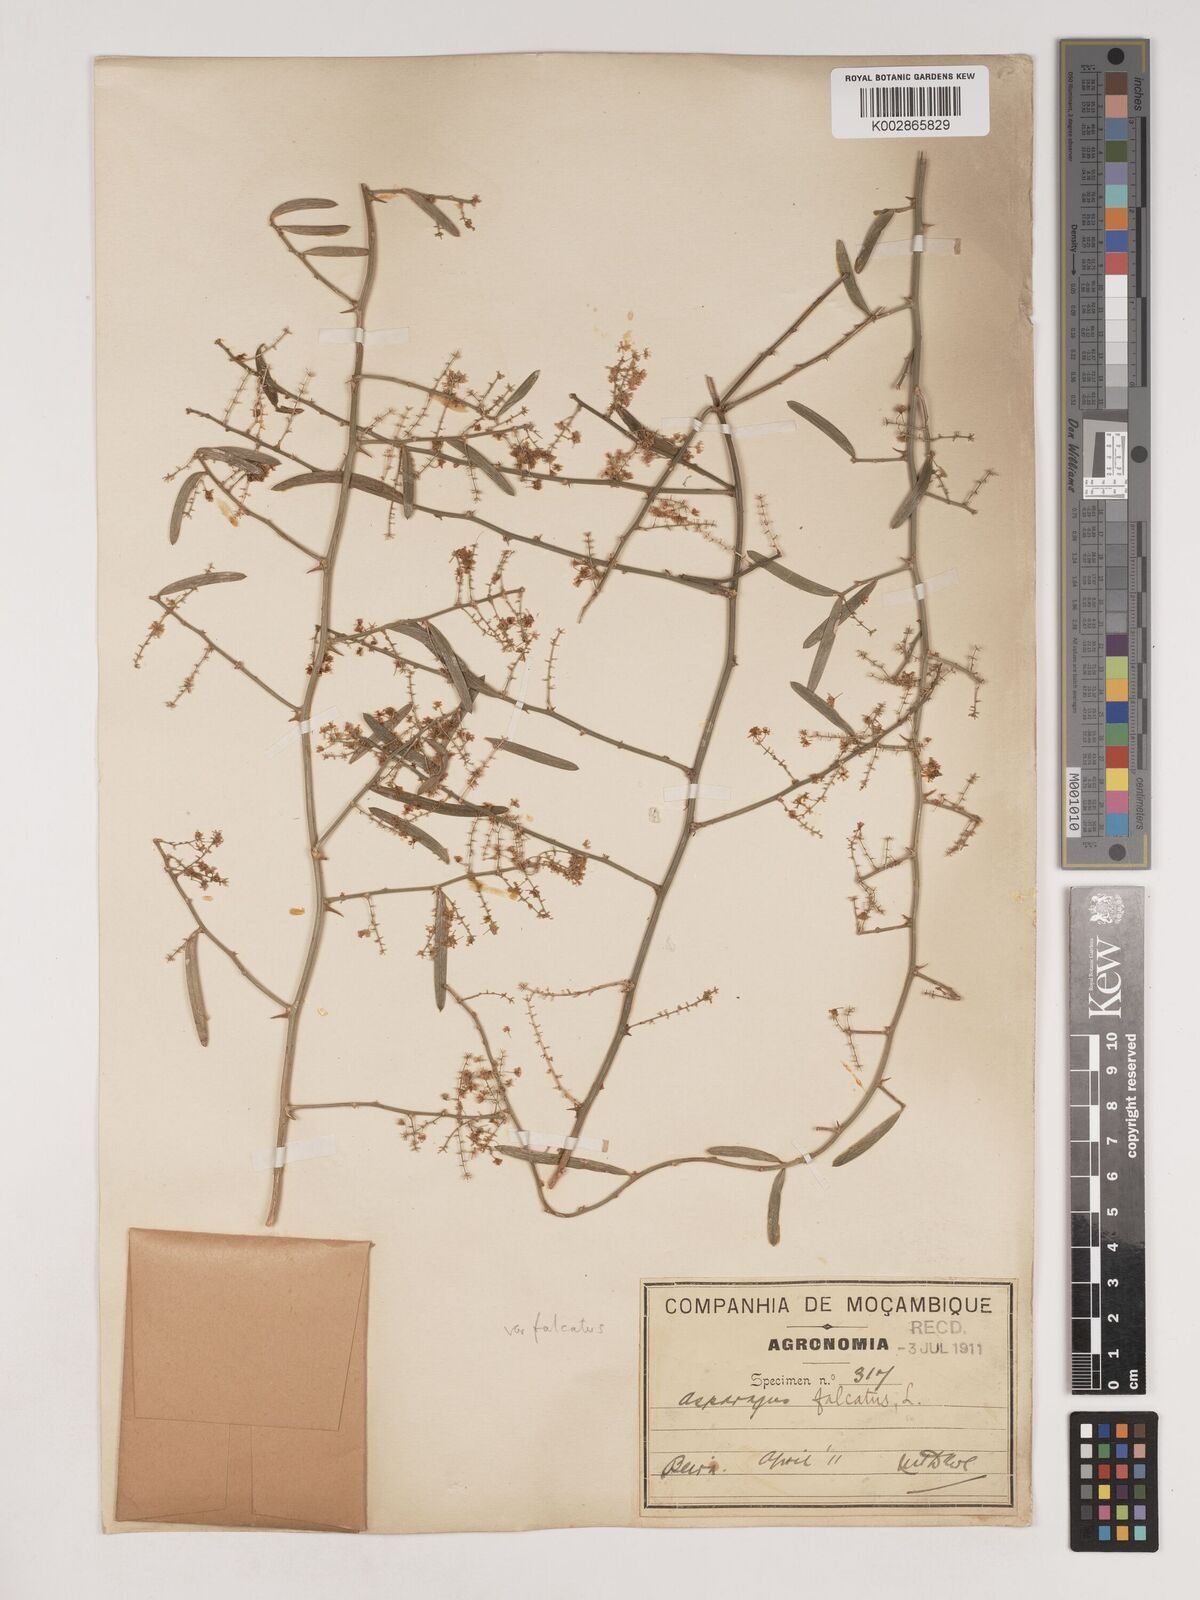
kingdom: Plantae
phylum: Tracheophyta
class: Liliopsida
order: Asparagales
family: Asparagaceae
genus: Asparagus
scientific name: Asparagus falcatus
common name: Asparagus
